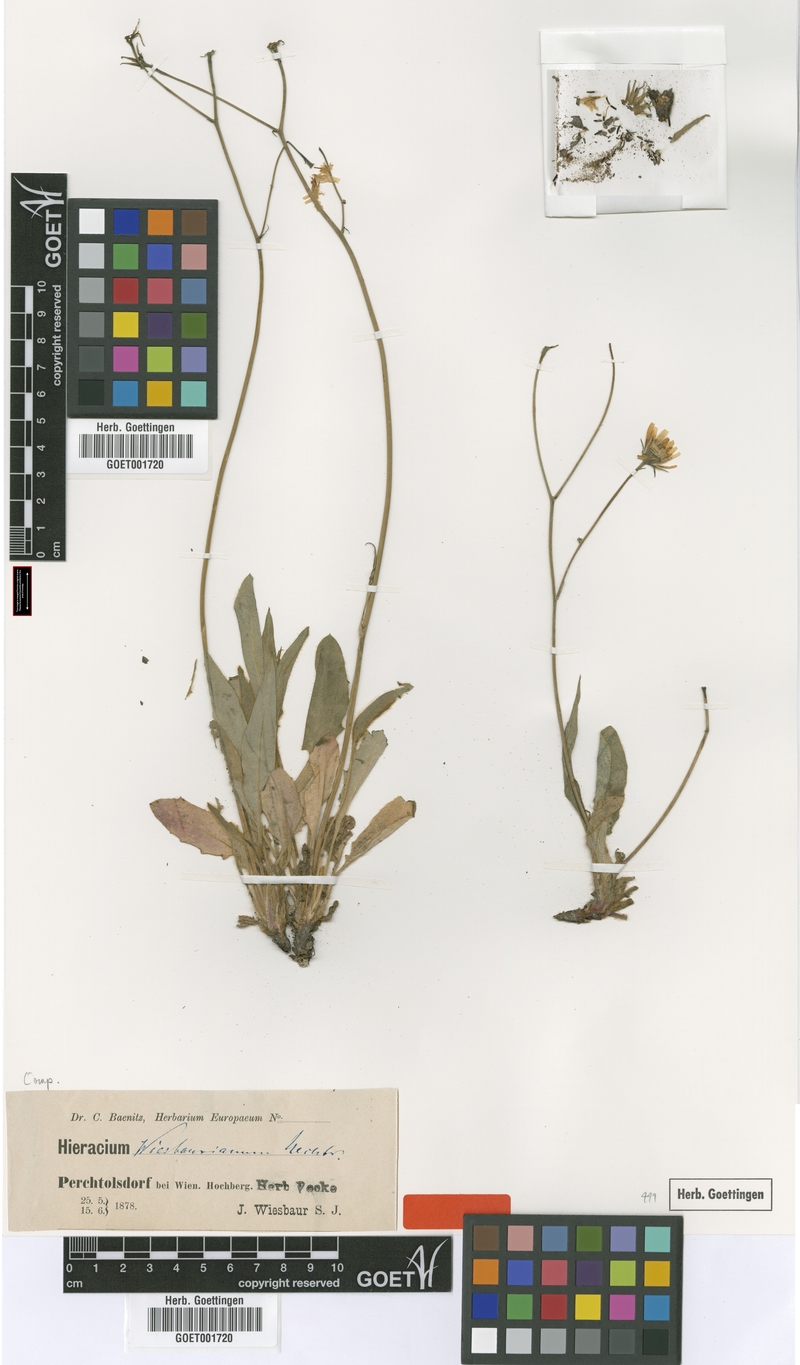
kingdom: Plantae
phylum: Tracheophyta
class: Magnoliopsida
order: Asterales
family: Asteraceae
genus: Hieracium
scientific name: Hieracium hypochoeroides
